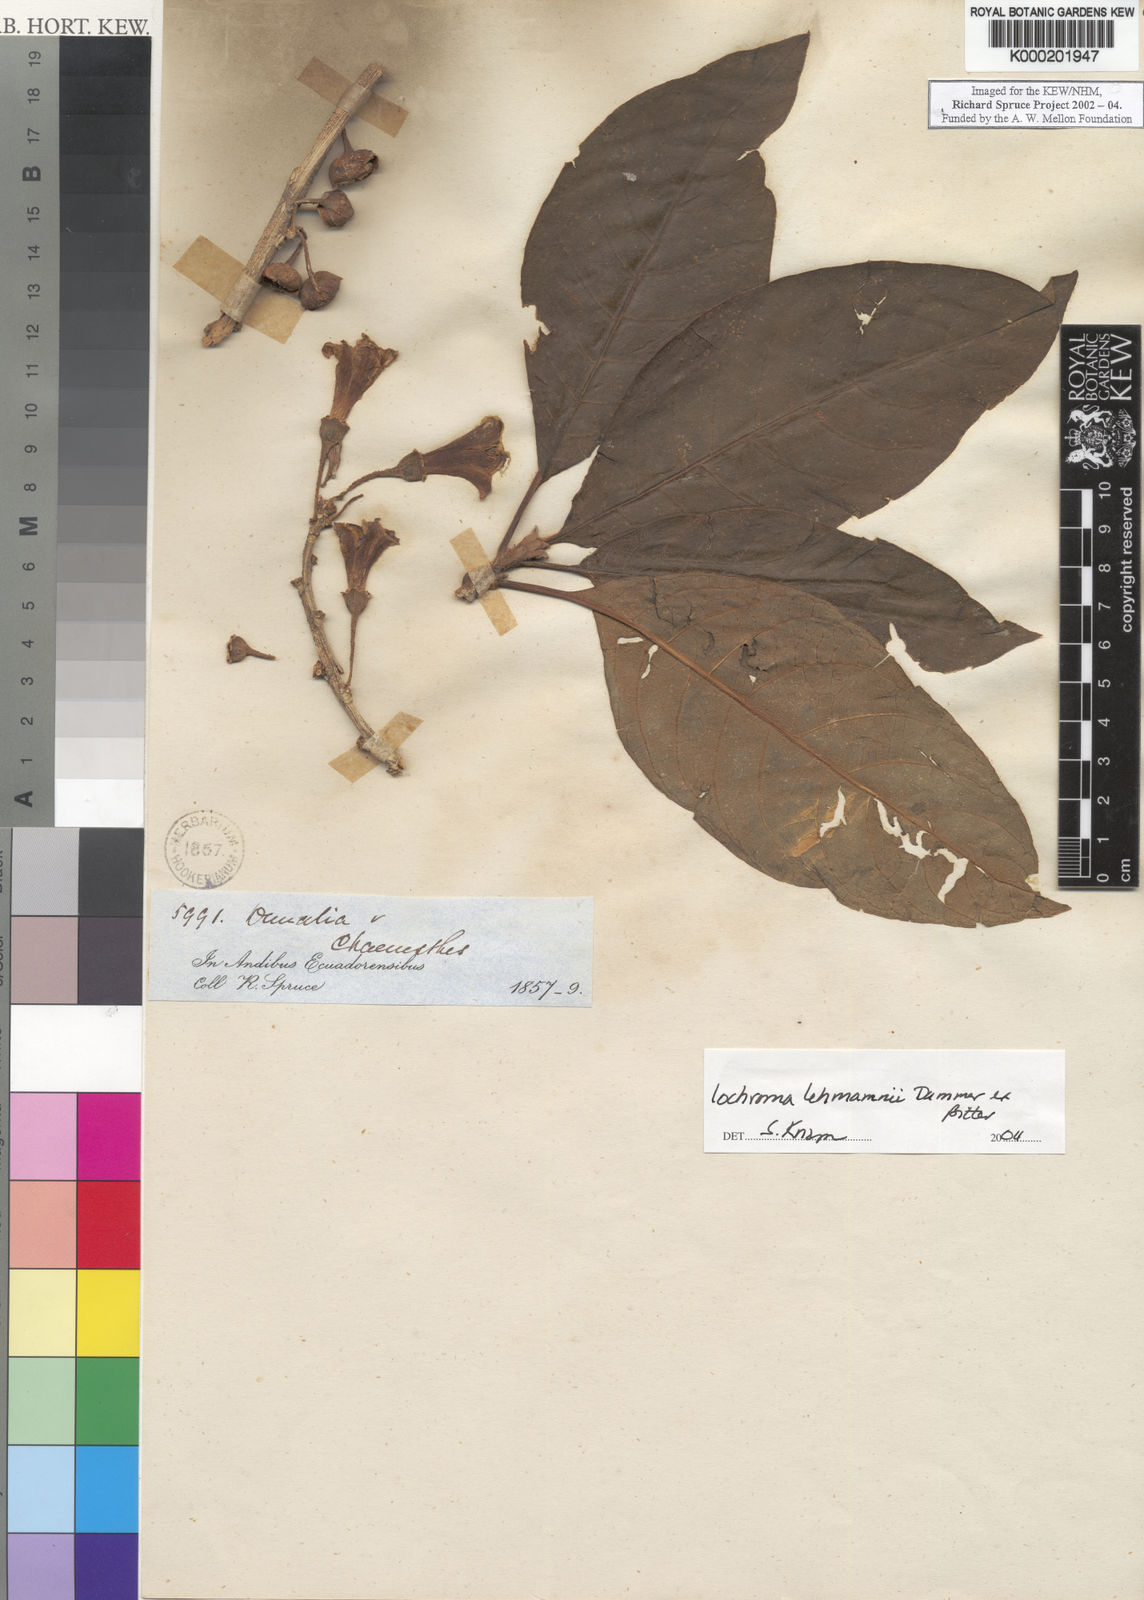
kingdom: Plantae
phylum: Tracheophyta
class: Magnoliopsida
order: Solanales
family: Solanaceae
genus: Iochroma
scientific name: Iochroma lehmannii
